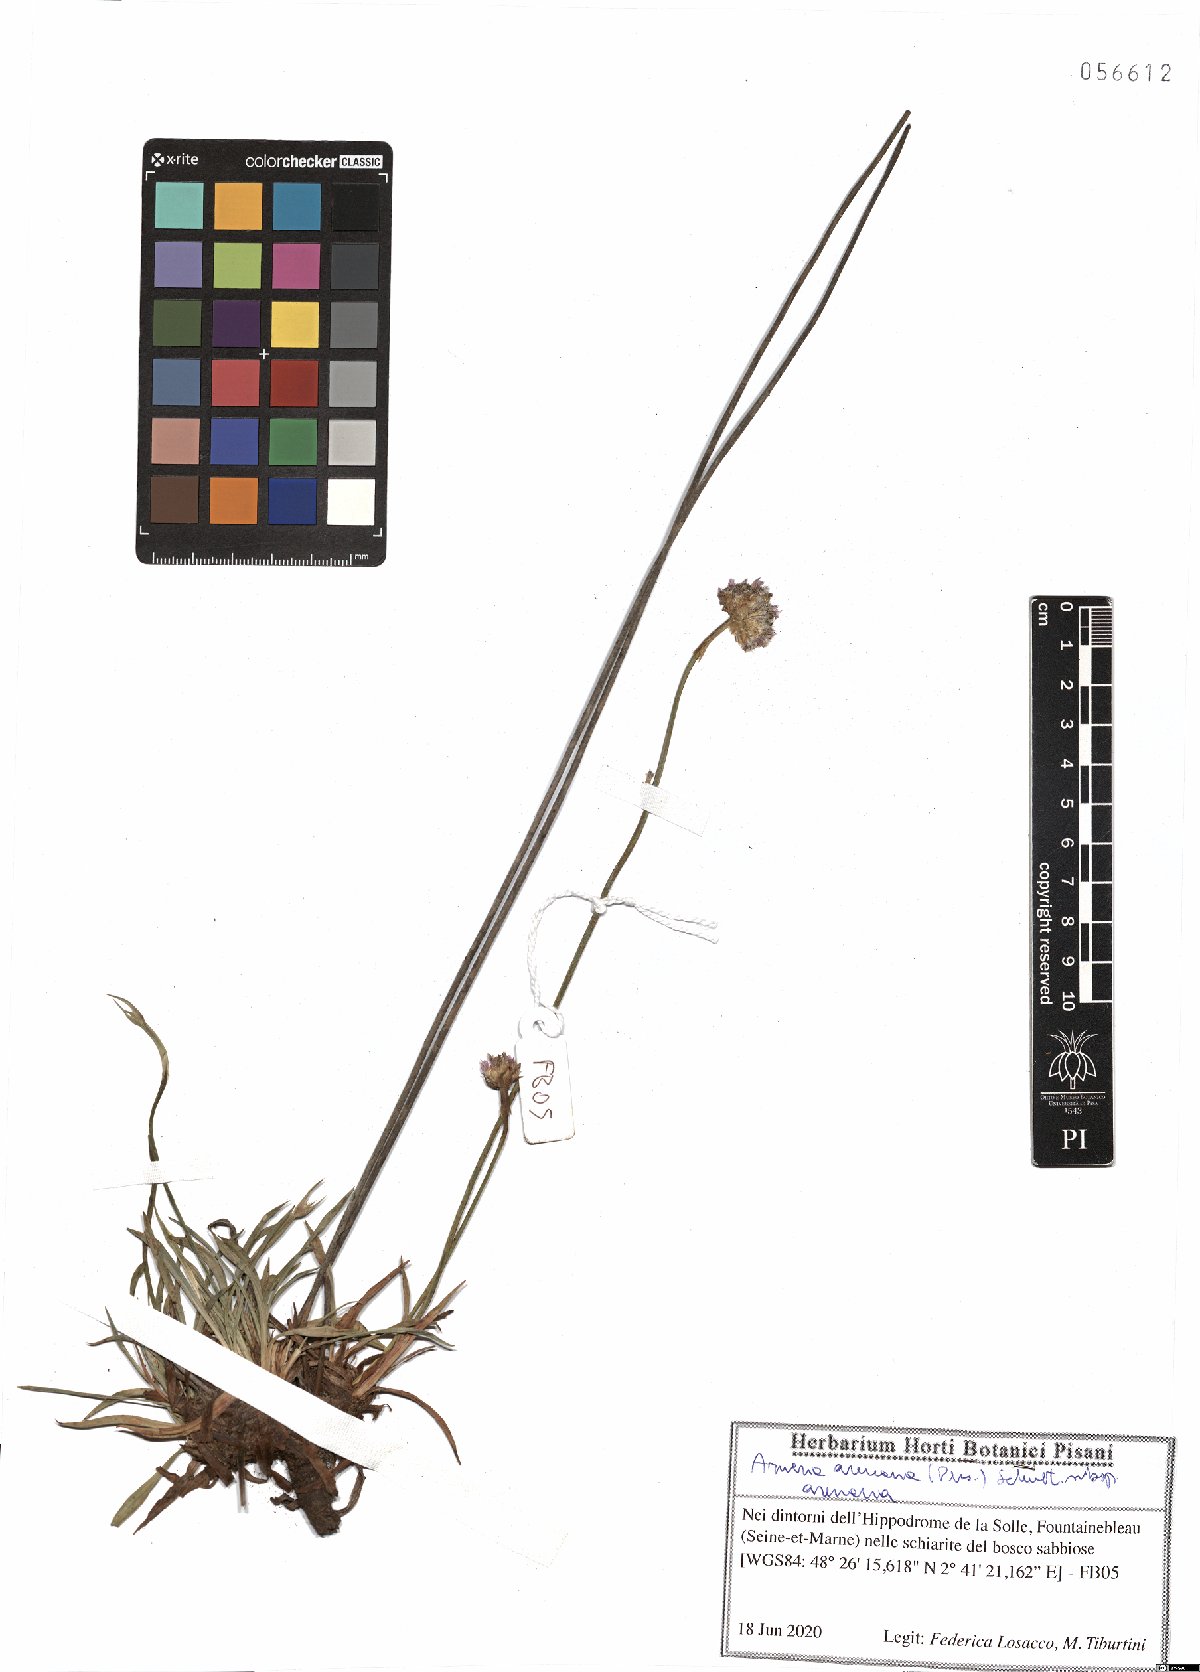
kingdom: Plantae
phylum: Tracheophyta
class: Magnoliopsida
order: Caryophyllales
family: Plumbaginaceae
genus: Armeria
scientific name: Armeria arenaria
